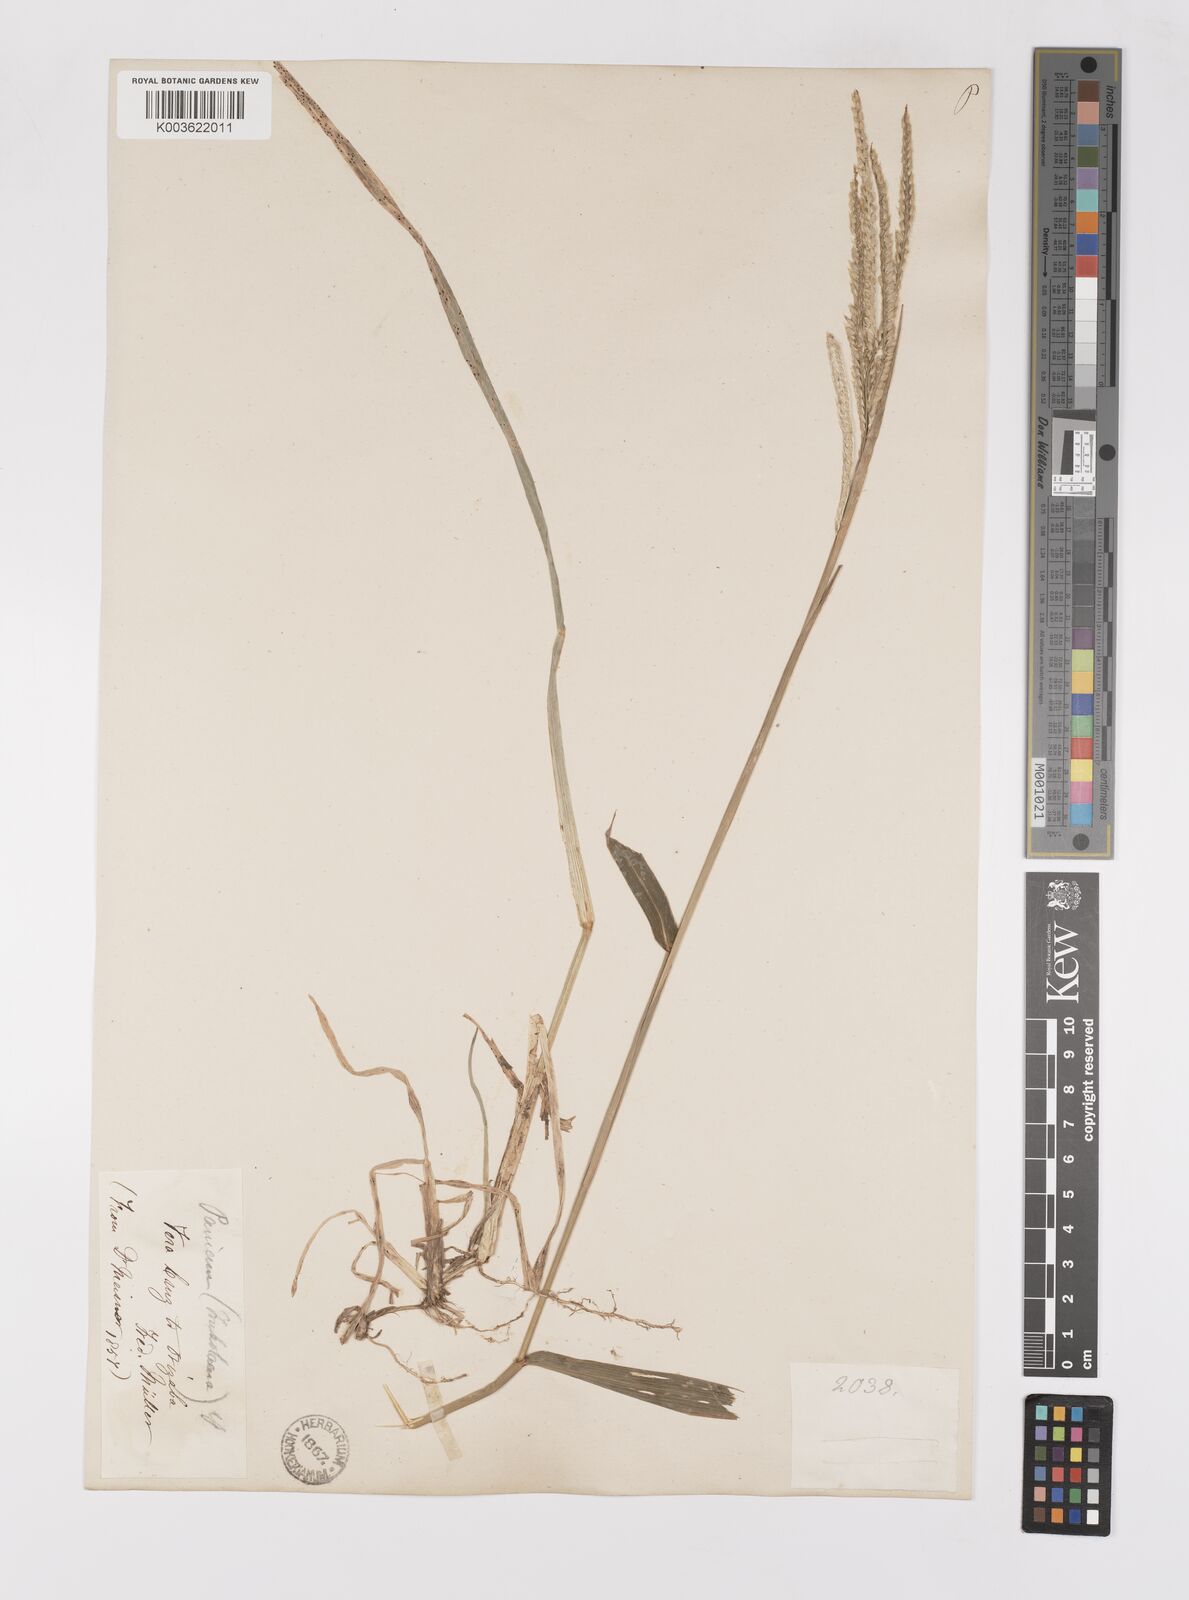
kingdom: Plantae
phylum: Tracheophyta
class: Liliopsida
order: Poales
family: Poaceae
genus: Paspalum
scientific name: Paspalum humboldtianum
